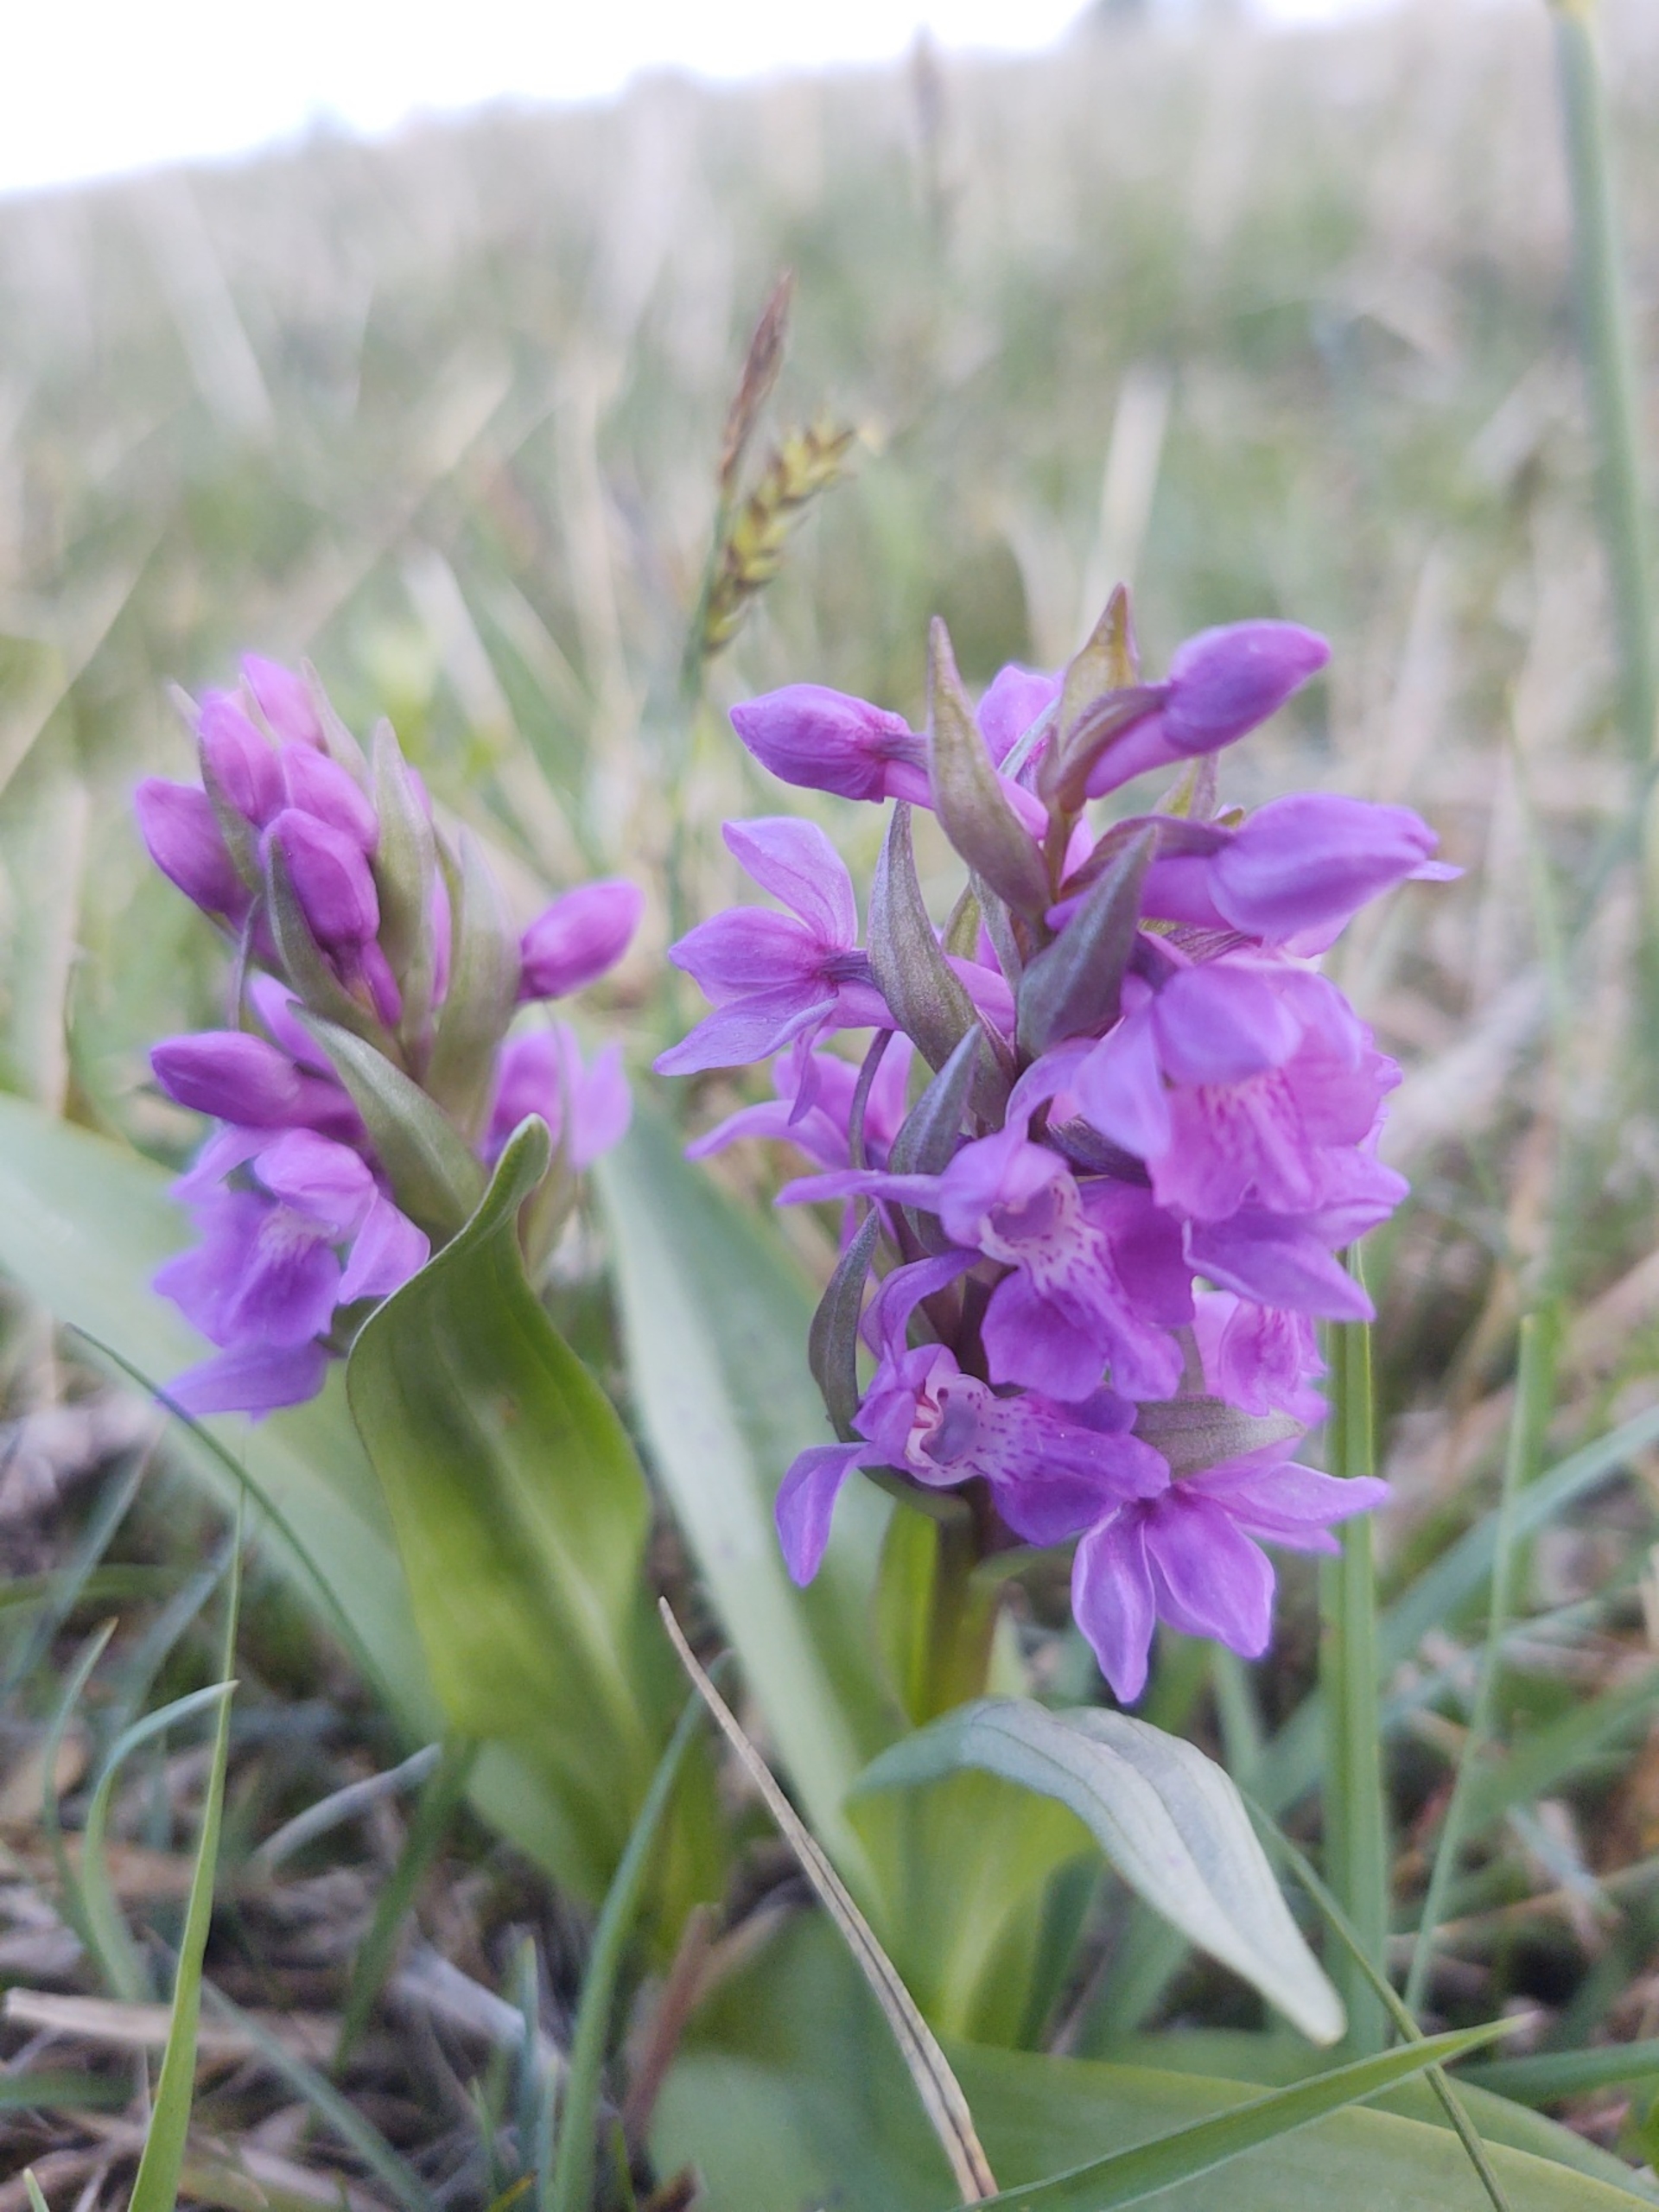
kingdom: Plantae
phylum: Tracheophyta
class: Liliopsida
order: Asparagales
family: Orchidaceae
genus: Dactylorhiza
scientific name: Dactylorhiza majalis
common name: Maj-gøgeurt
